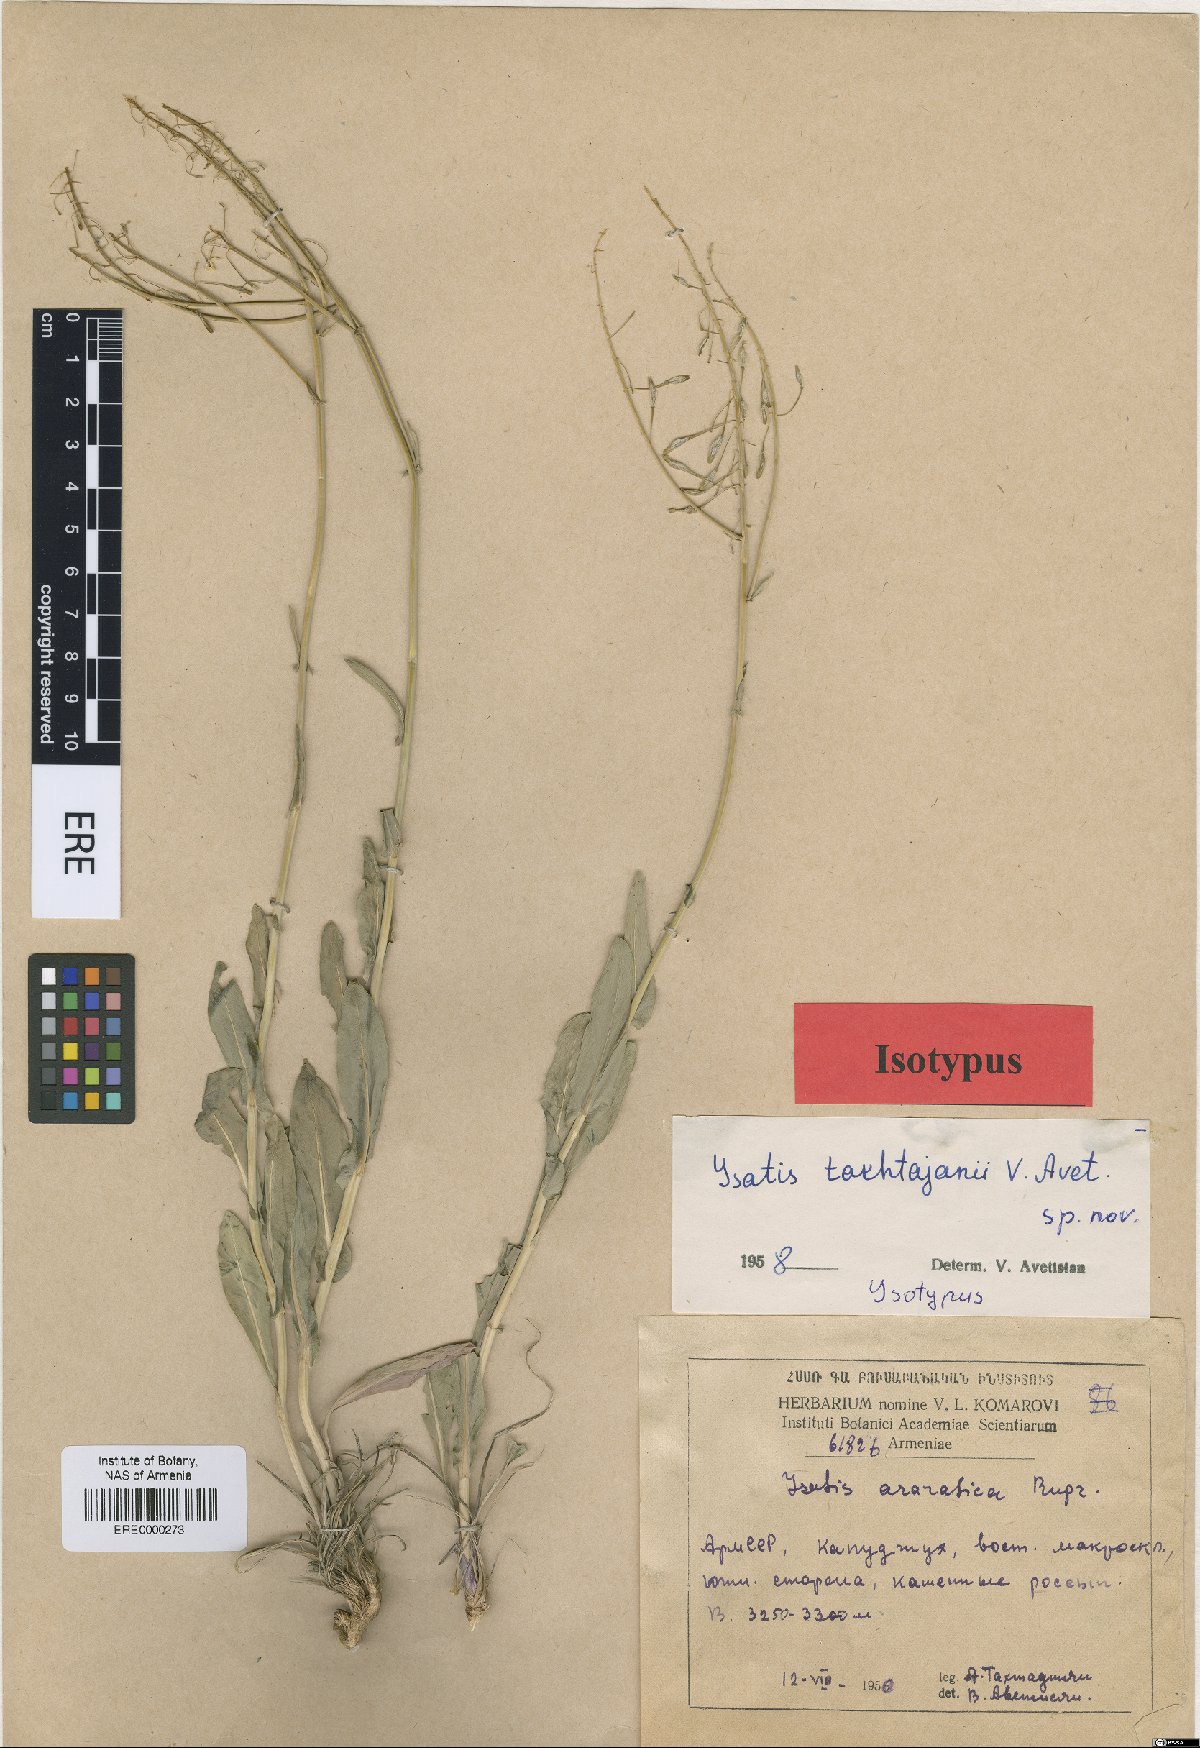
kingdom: Plantae
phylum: Tracheophyta
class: Magnoliopsida
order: Brassicales
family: Brassicaceae
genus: Isatis
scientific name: Isatis takhtajanii
